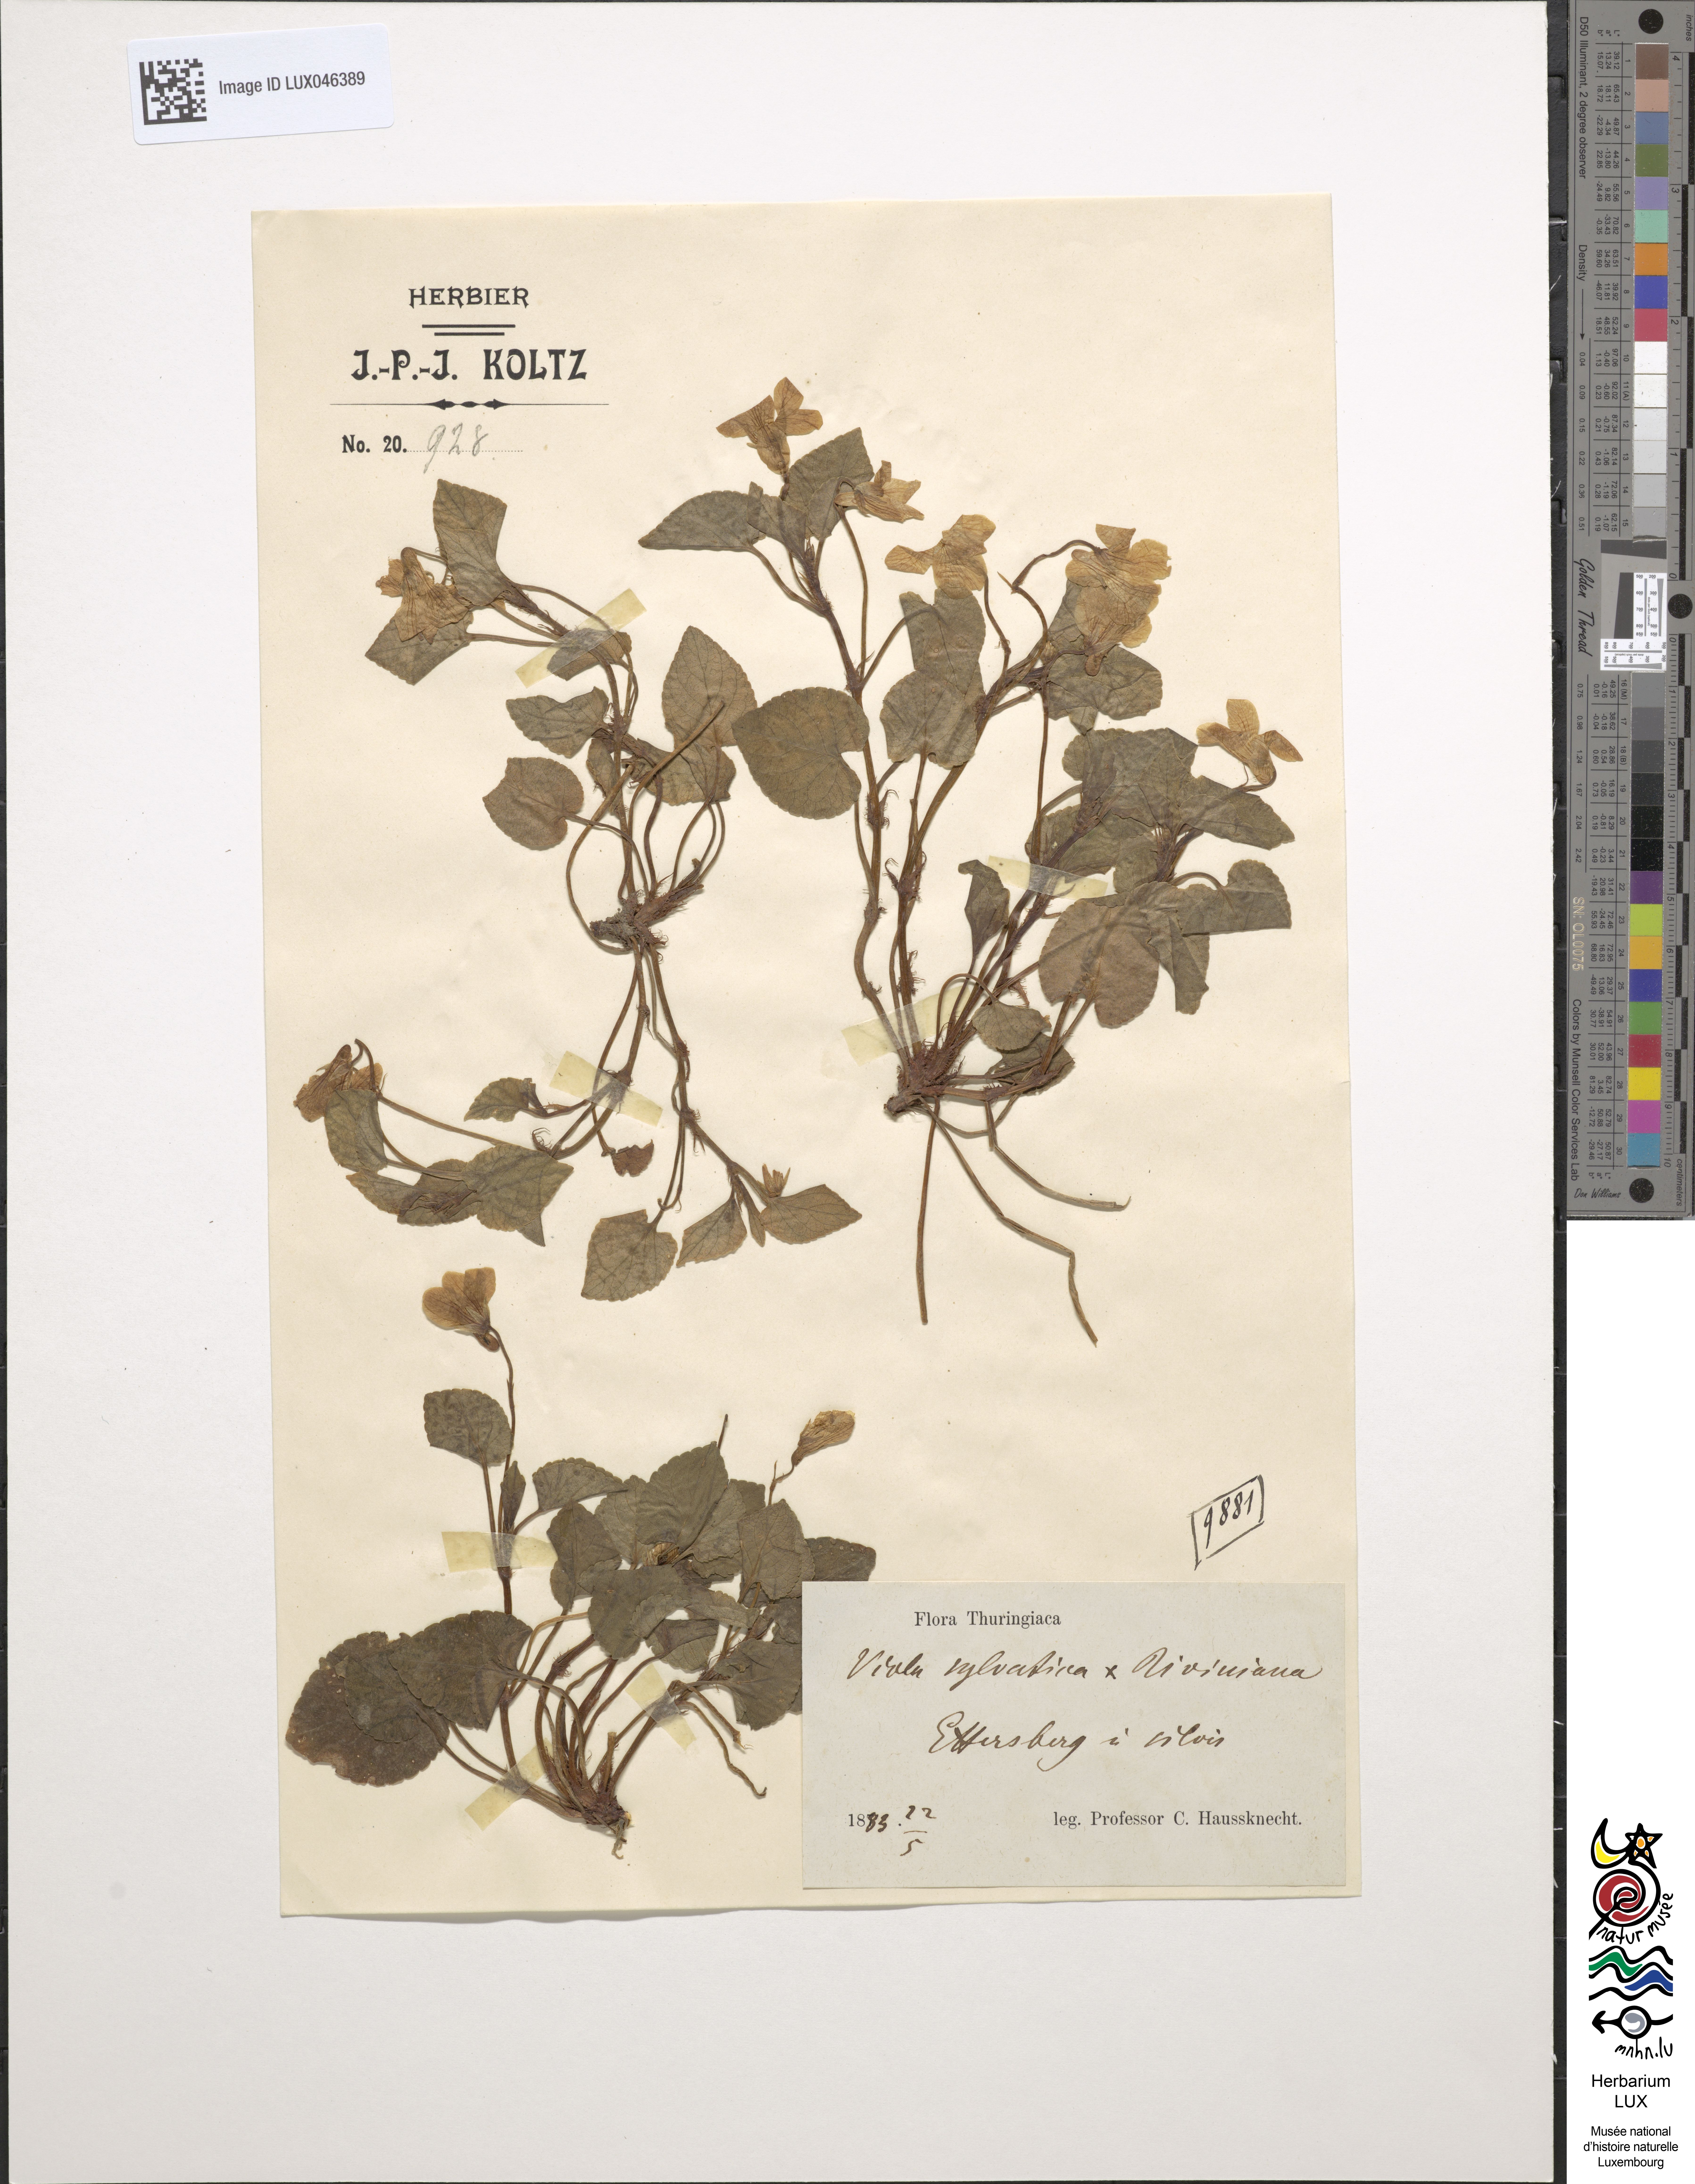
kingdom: Plantae
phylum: Tracheophyta
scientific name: Tracheophyta
